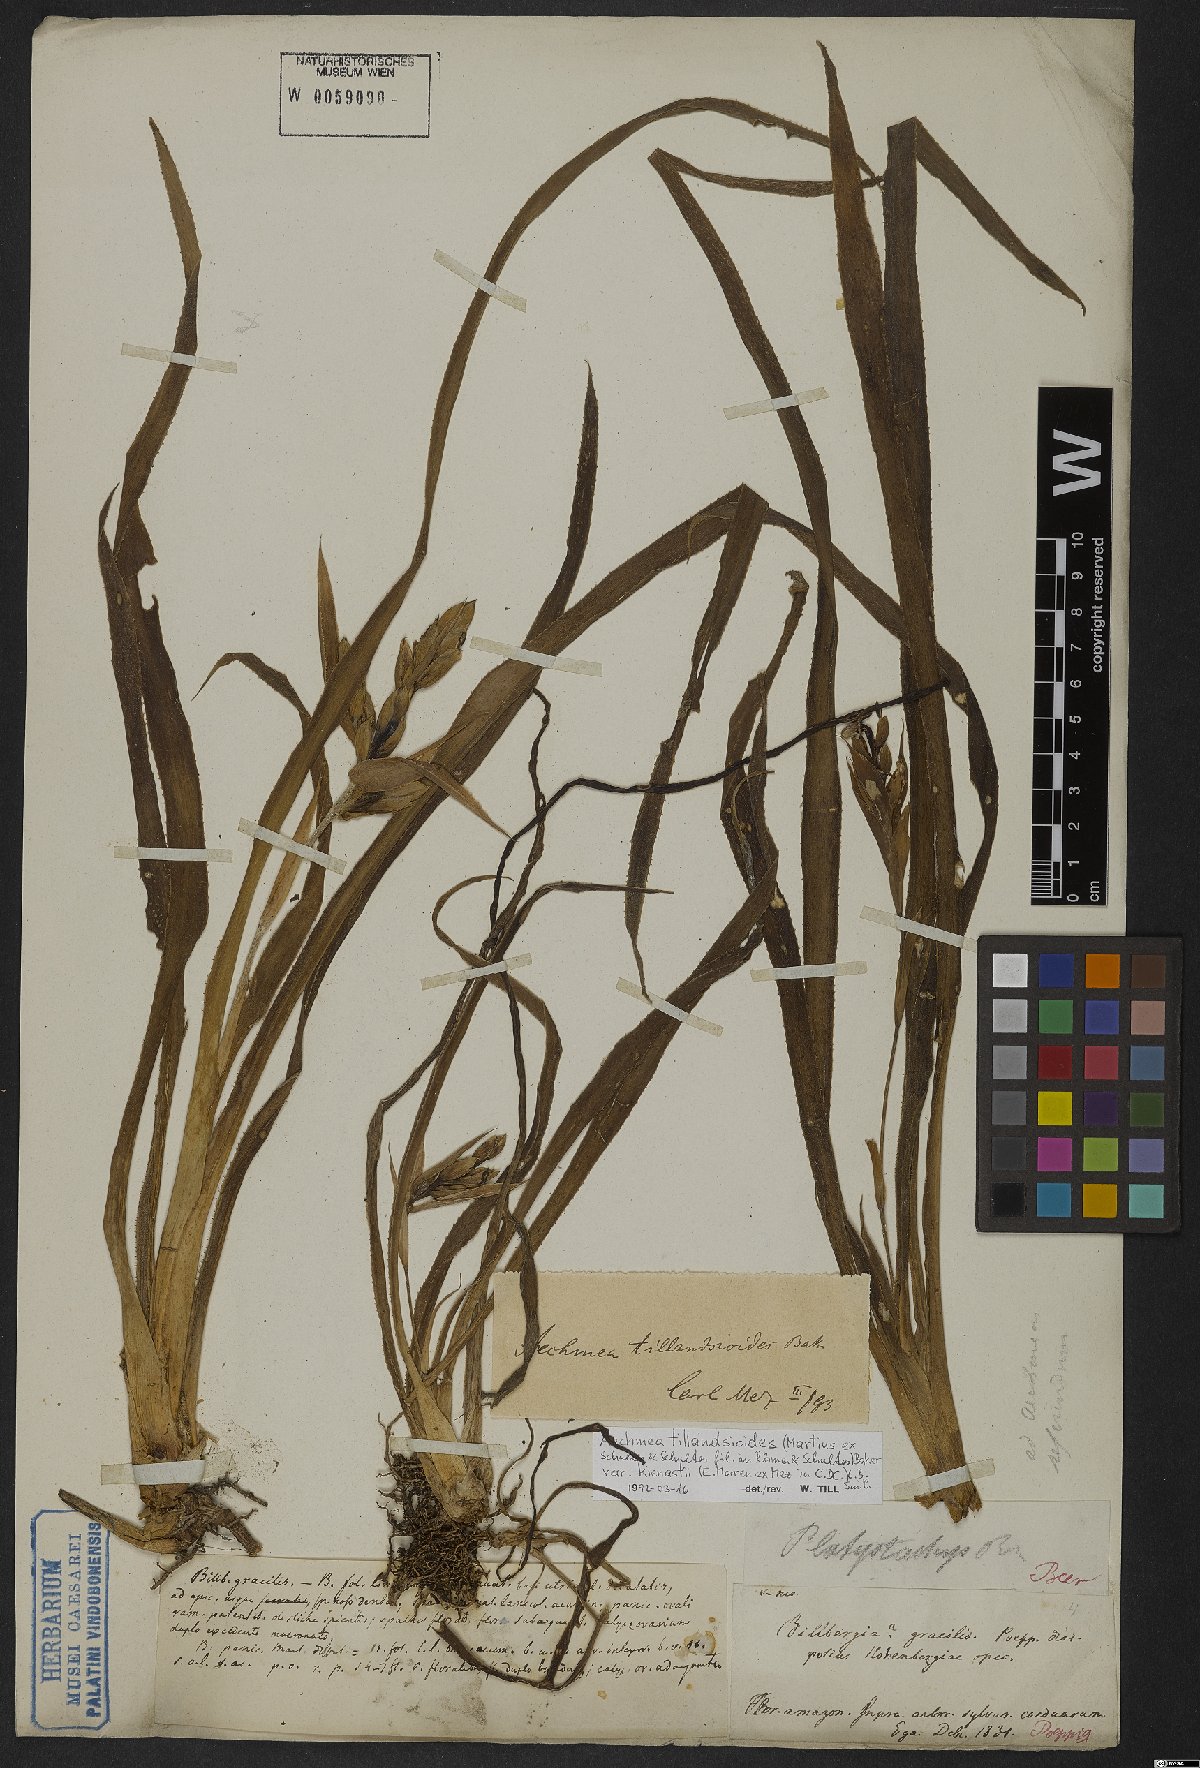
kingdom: Plantae
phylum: Tracheophyta
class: Liliopsida
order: Poales
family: Bromeliaceae
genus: Aechmea
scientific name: Aechmea tillandsioides
